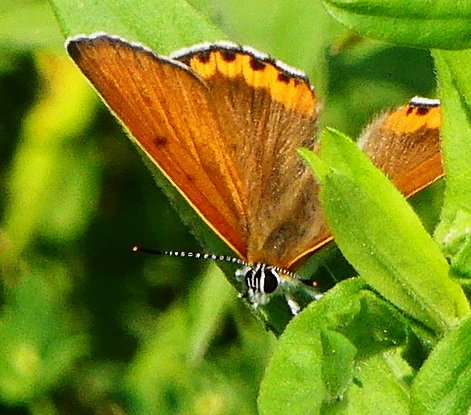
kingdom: Animalia
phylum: Arthropoda
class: Insecta
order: Lepidoptera
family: Sesiidae
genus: Sesia
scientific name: Sesia Lycaena hyllus
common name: Bronze Copper
